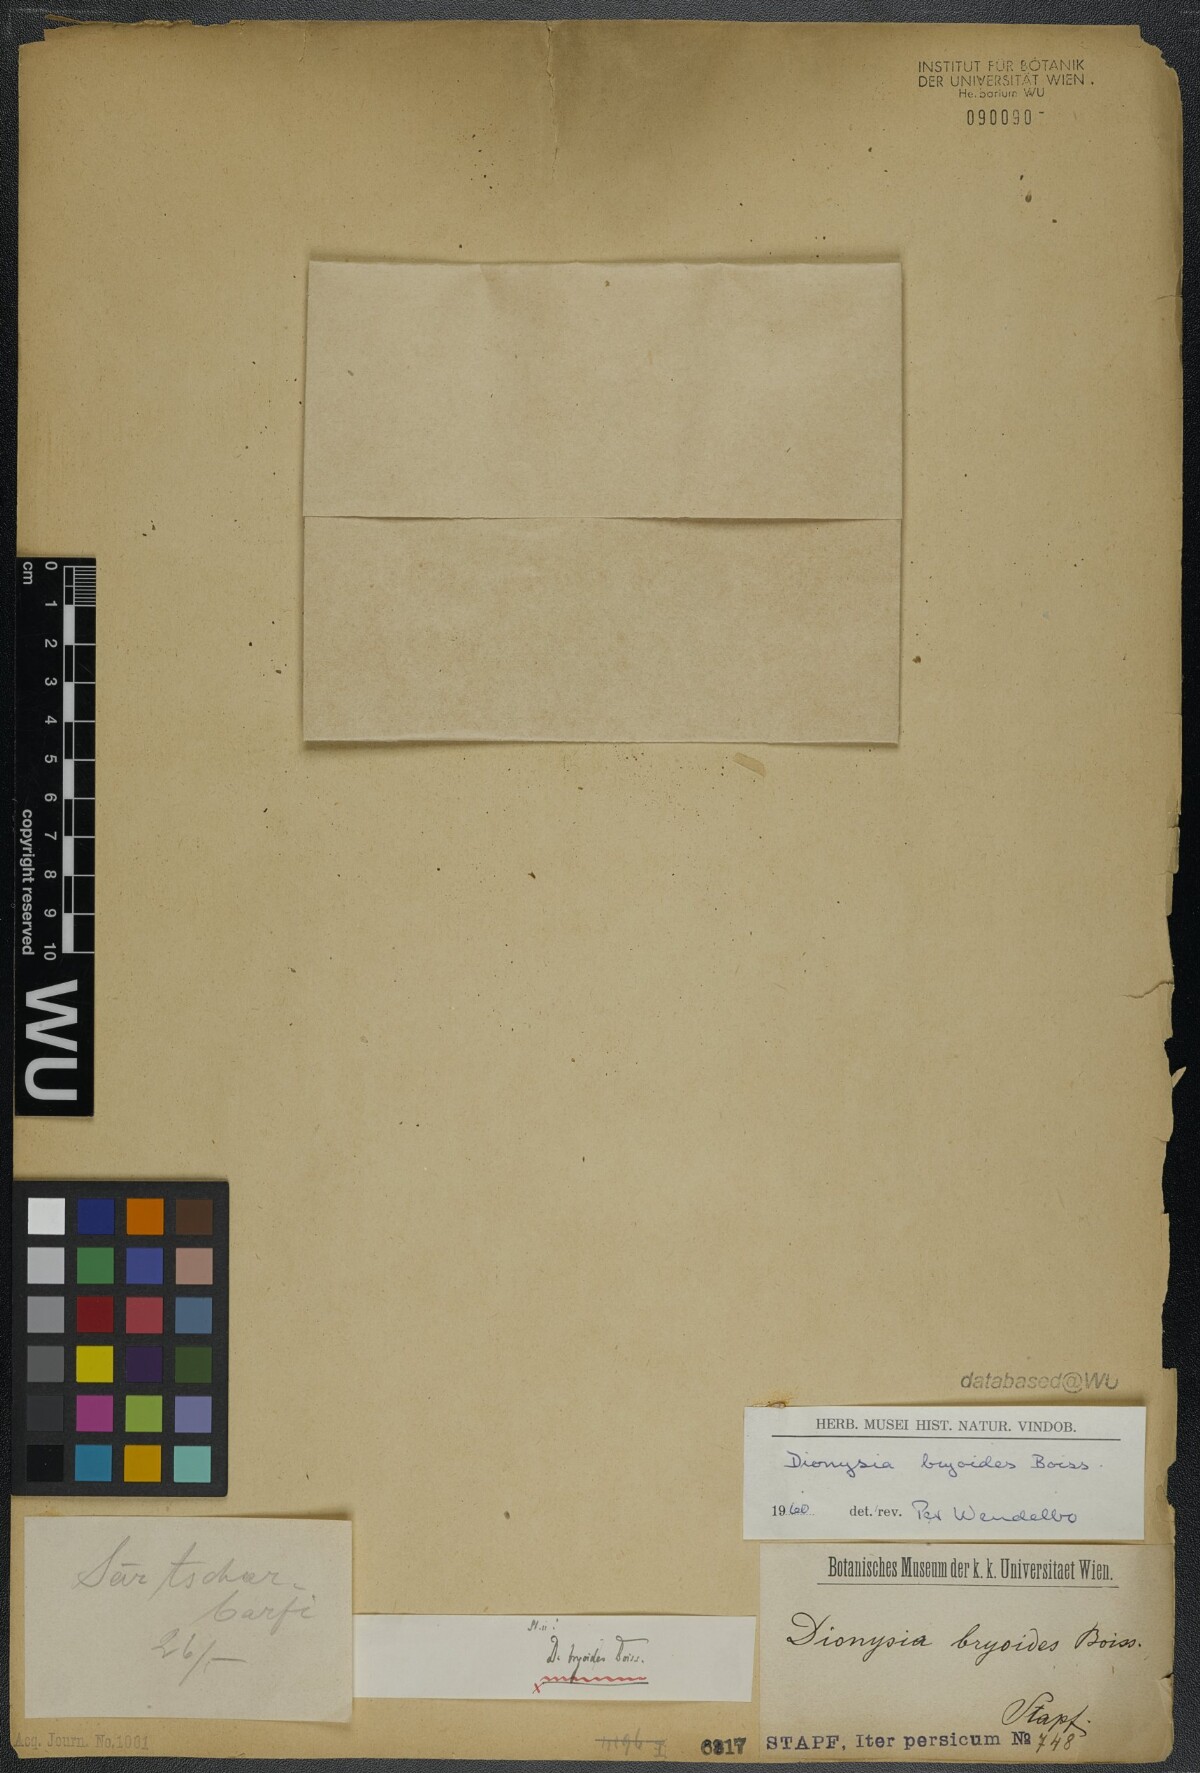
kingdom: Plantae
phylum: Tracheophyta
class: Magnoliopsida
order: Ericales
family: Primulaceae
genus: Dionysia
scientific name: Dionysia bryoides
